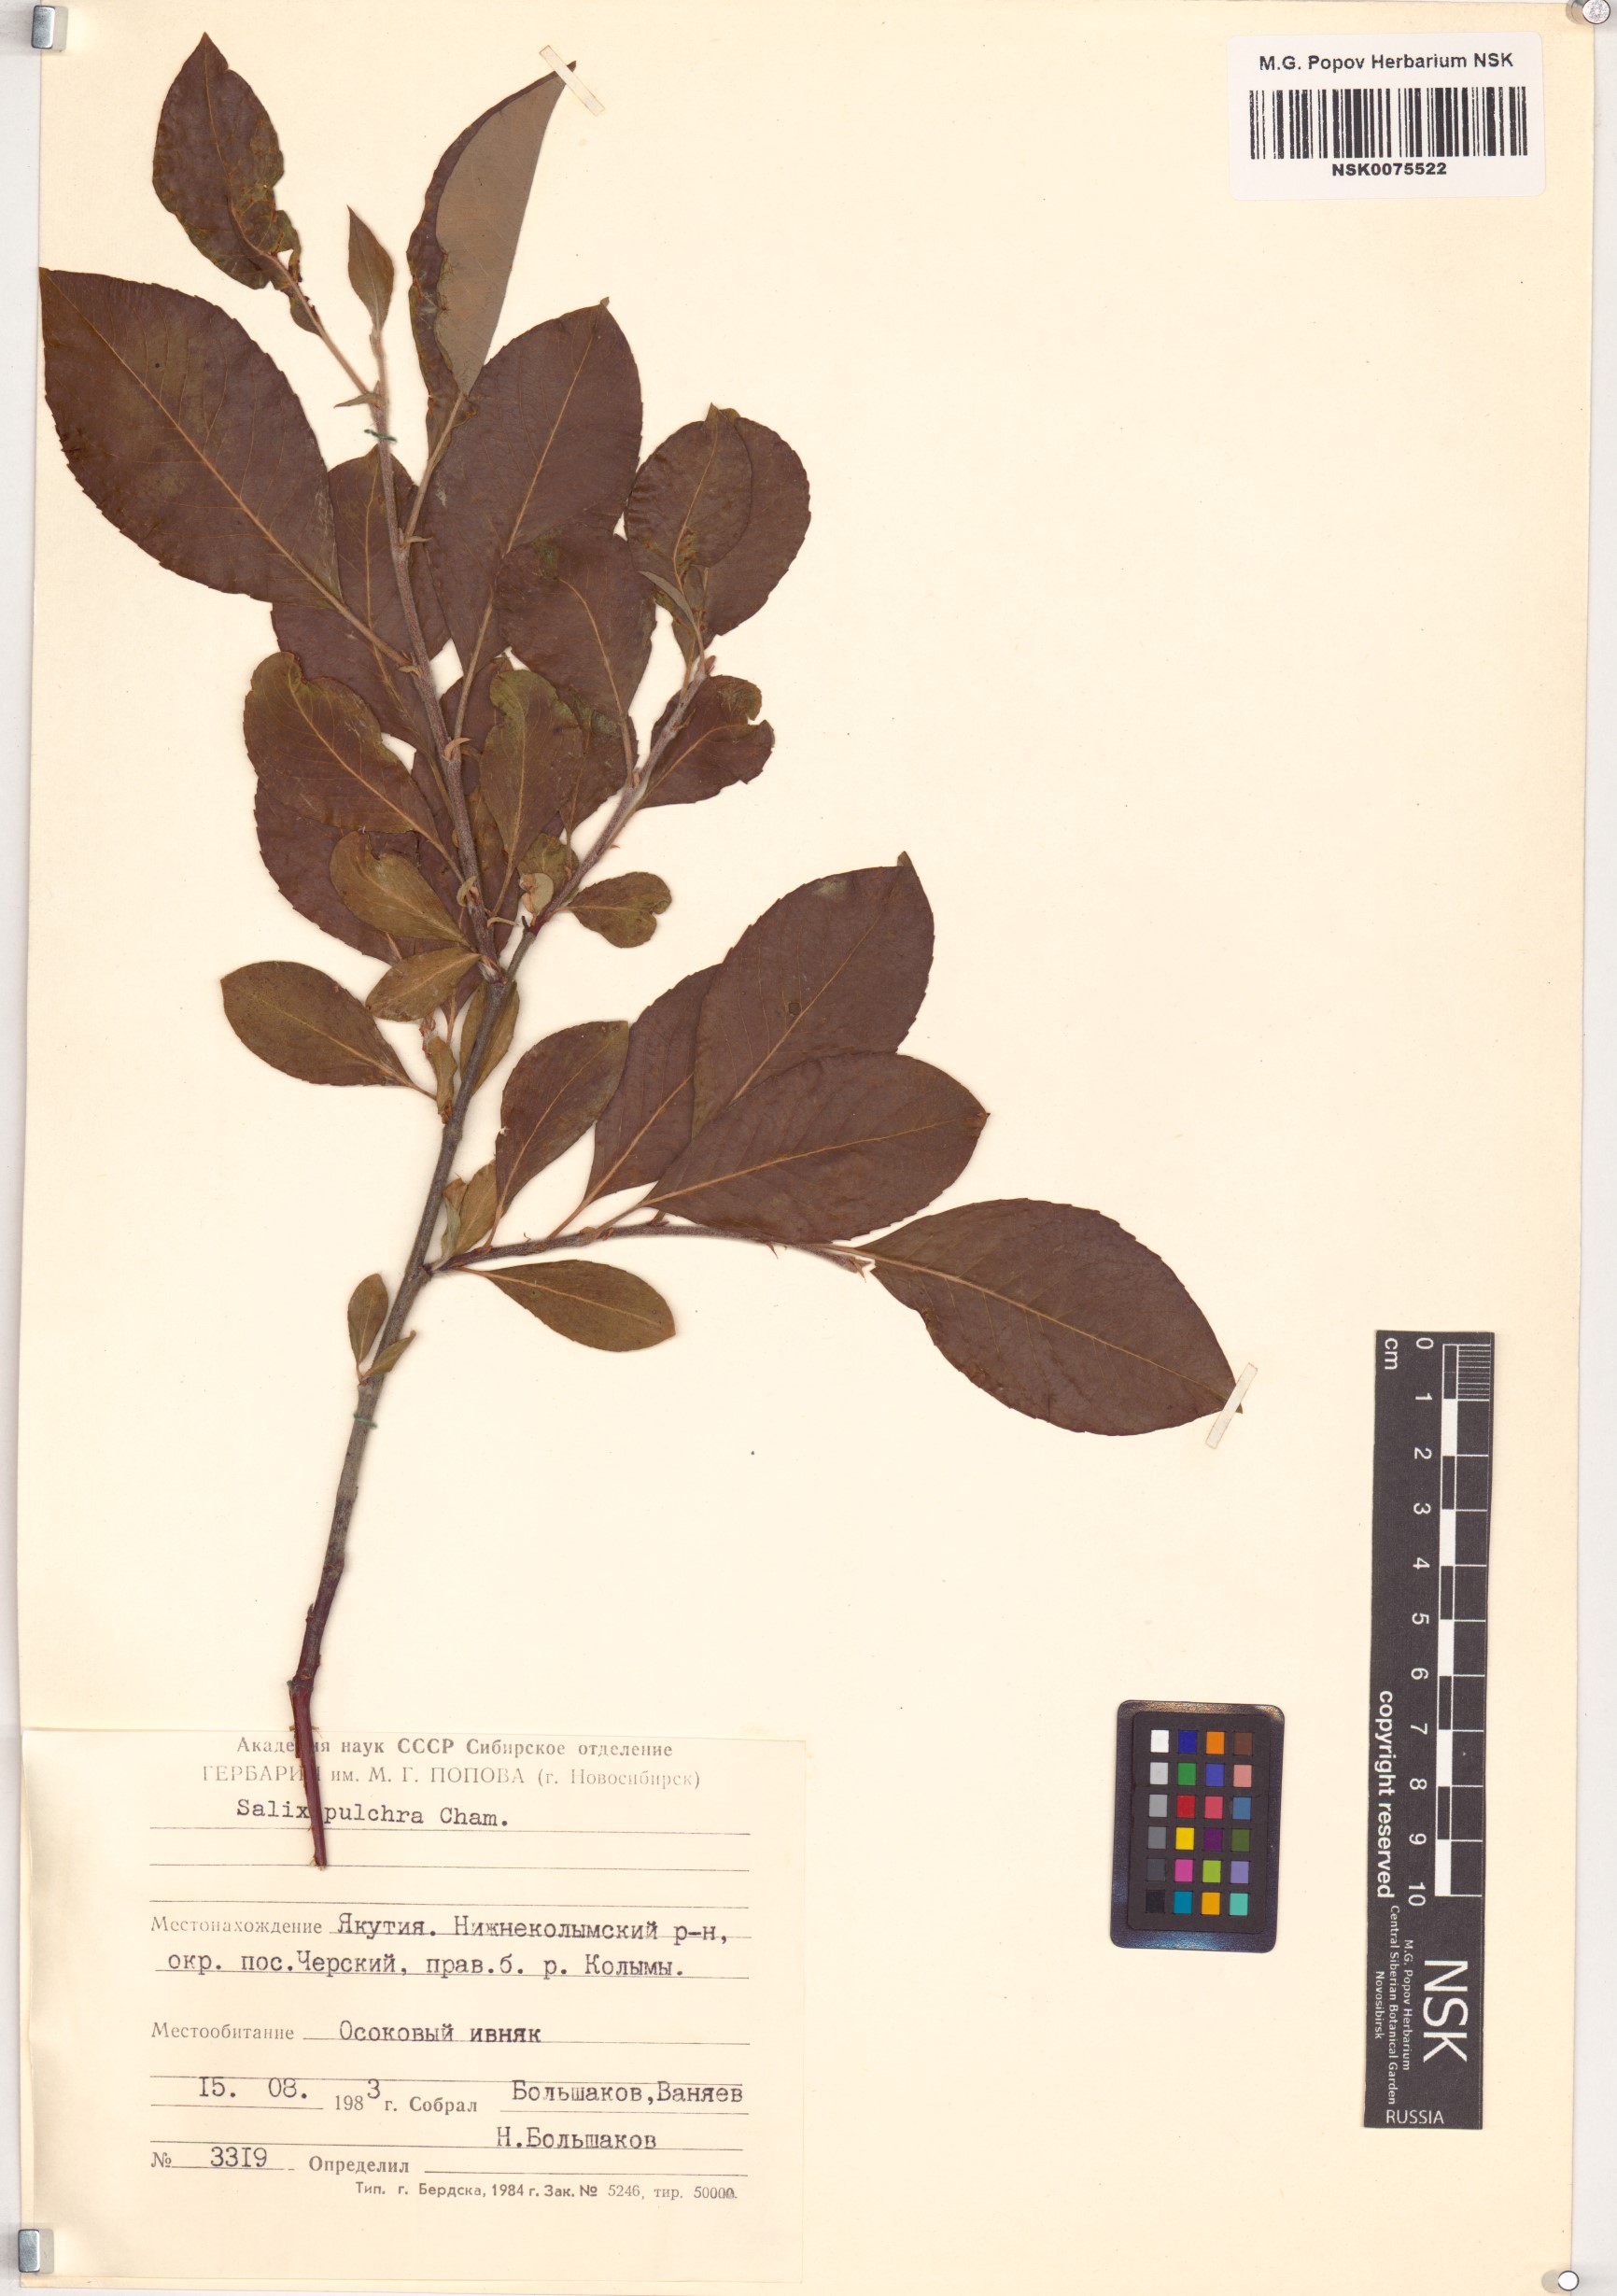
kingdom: Plantae
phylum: Tracheophyta
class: Magnoliopsida
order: Malpighiales
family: Salicaceae
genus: Salix
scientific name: Salix pulchra
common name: Diamond-leaved willow
